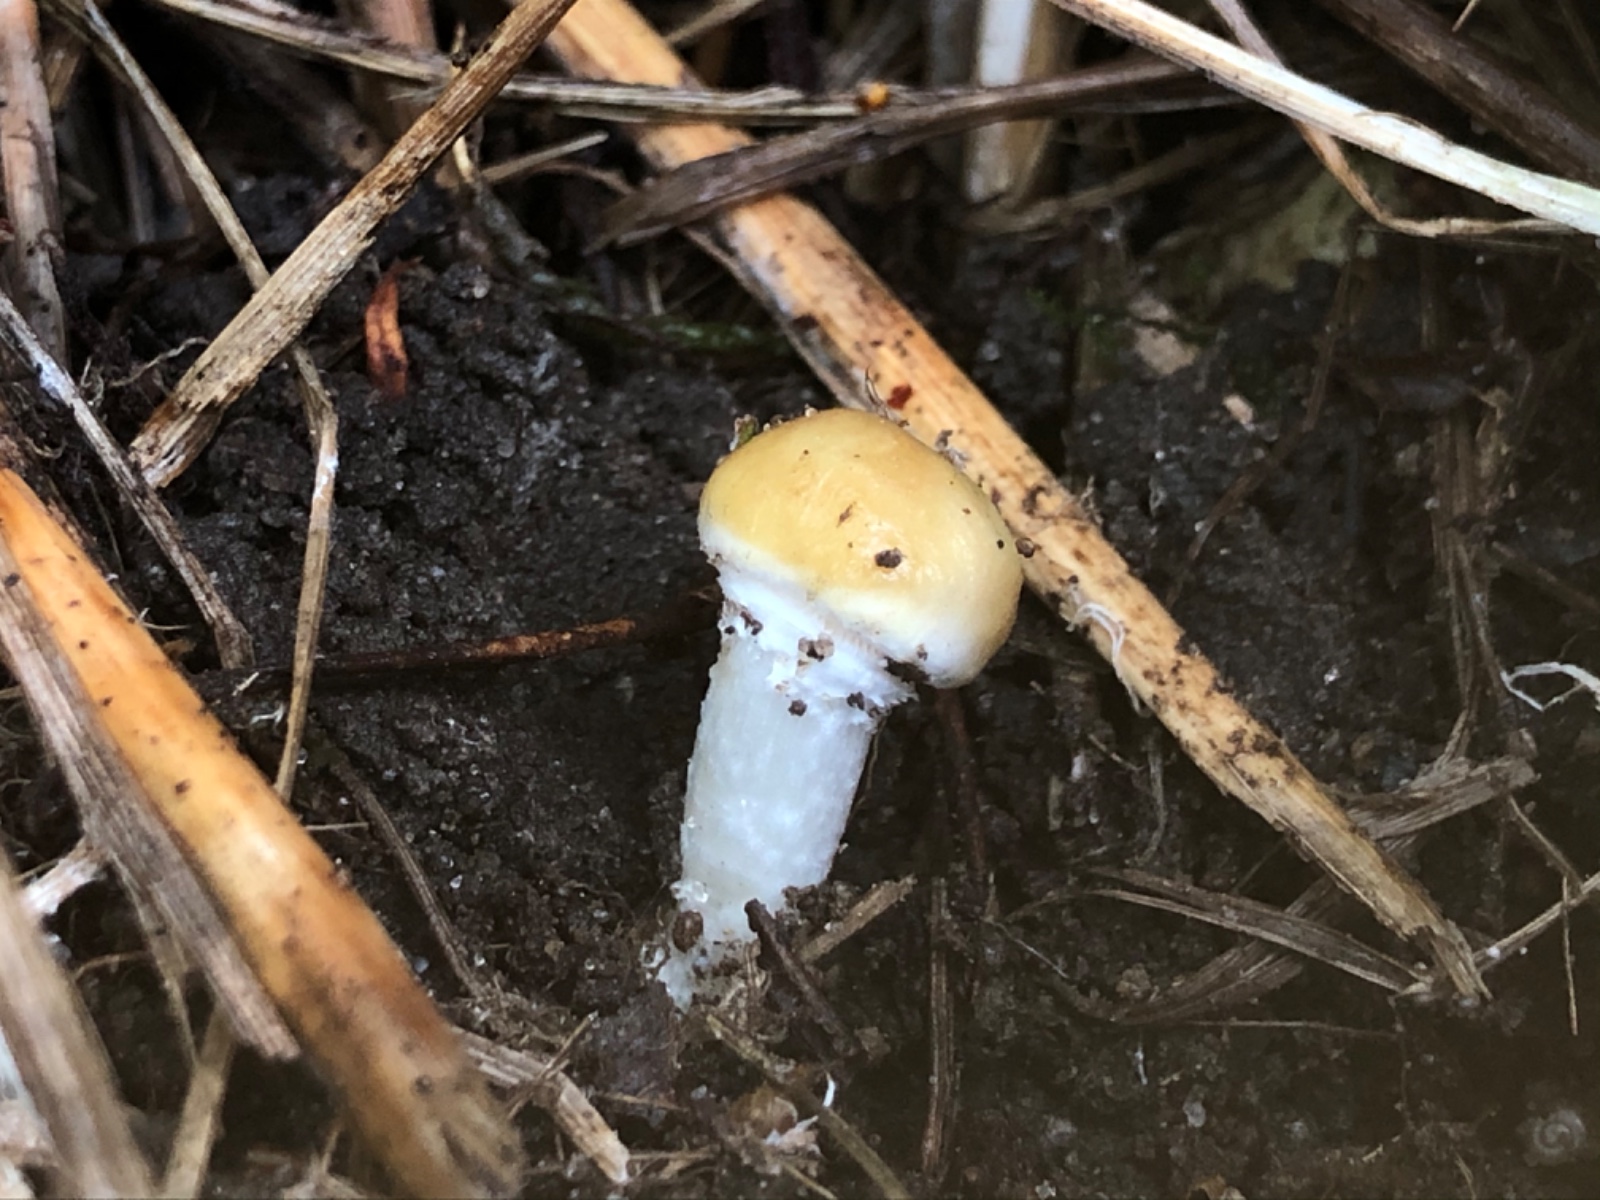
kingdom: Fungi
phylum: Basidiomycota
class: Agaricomycetes
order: Agaricales
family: Hymenogastraceae
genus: Psilocybe
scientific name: Psilocybe coronilla
